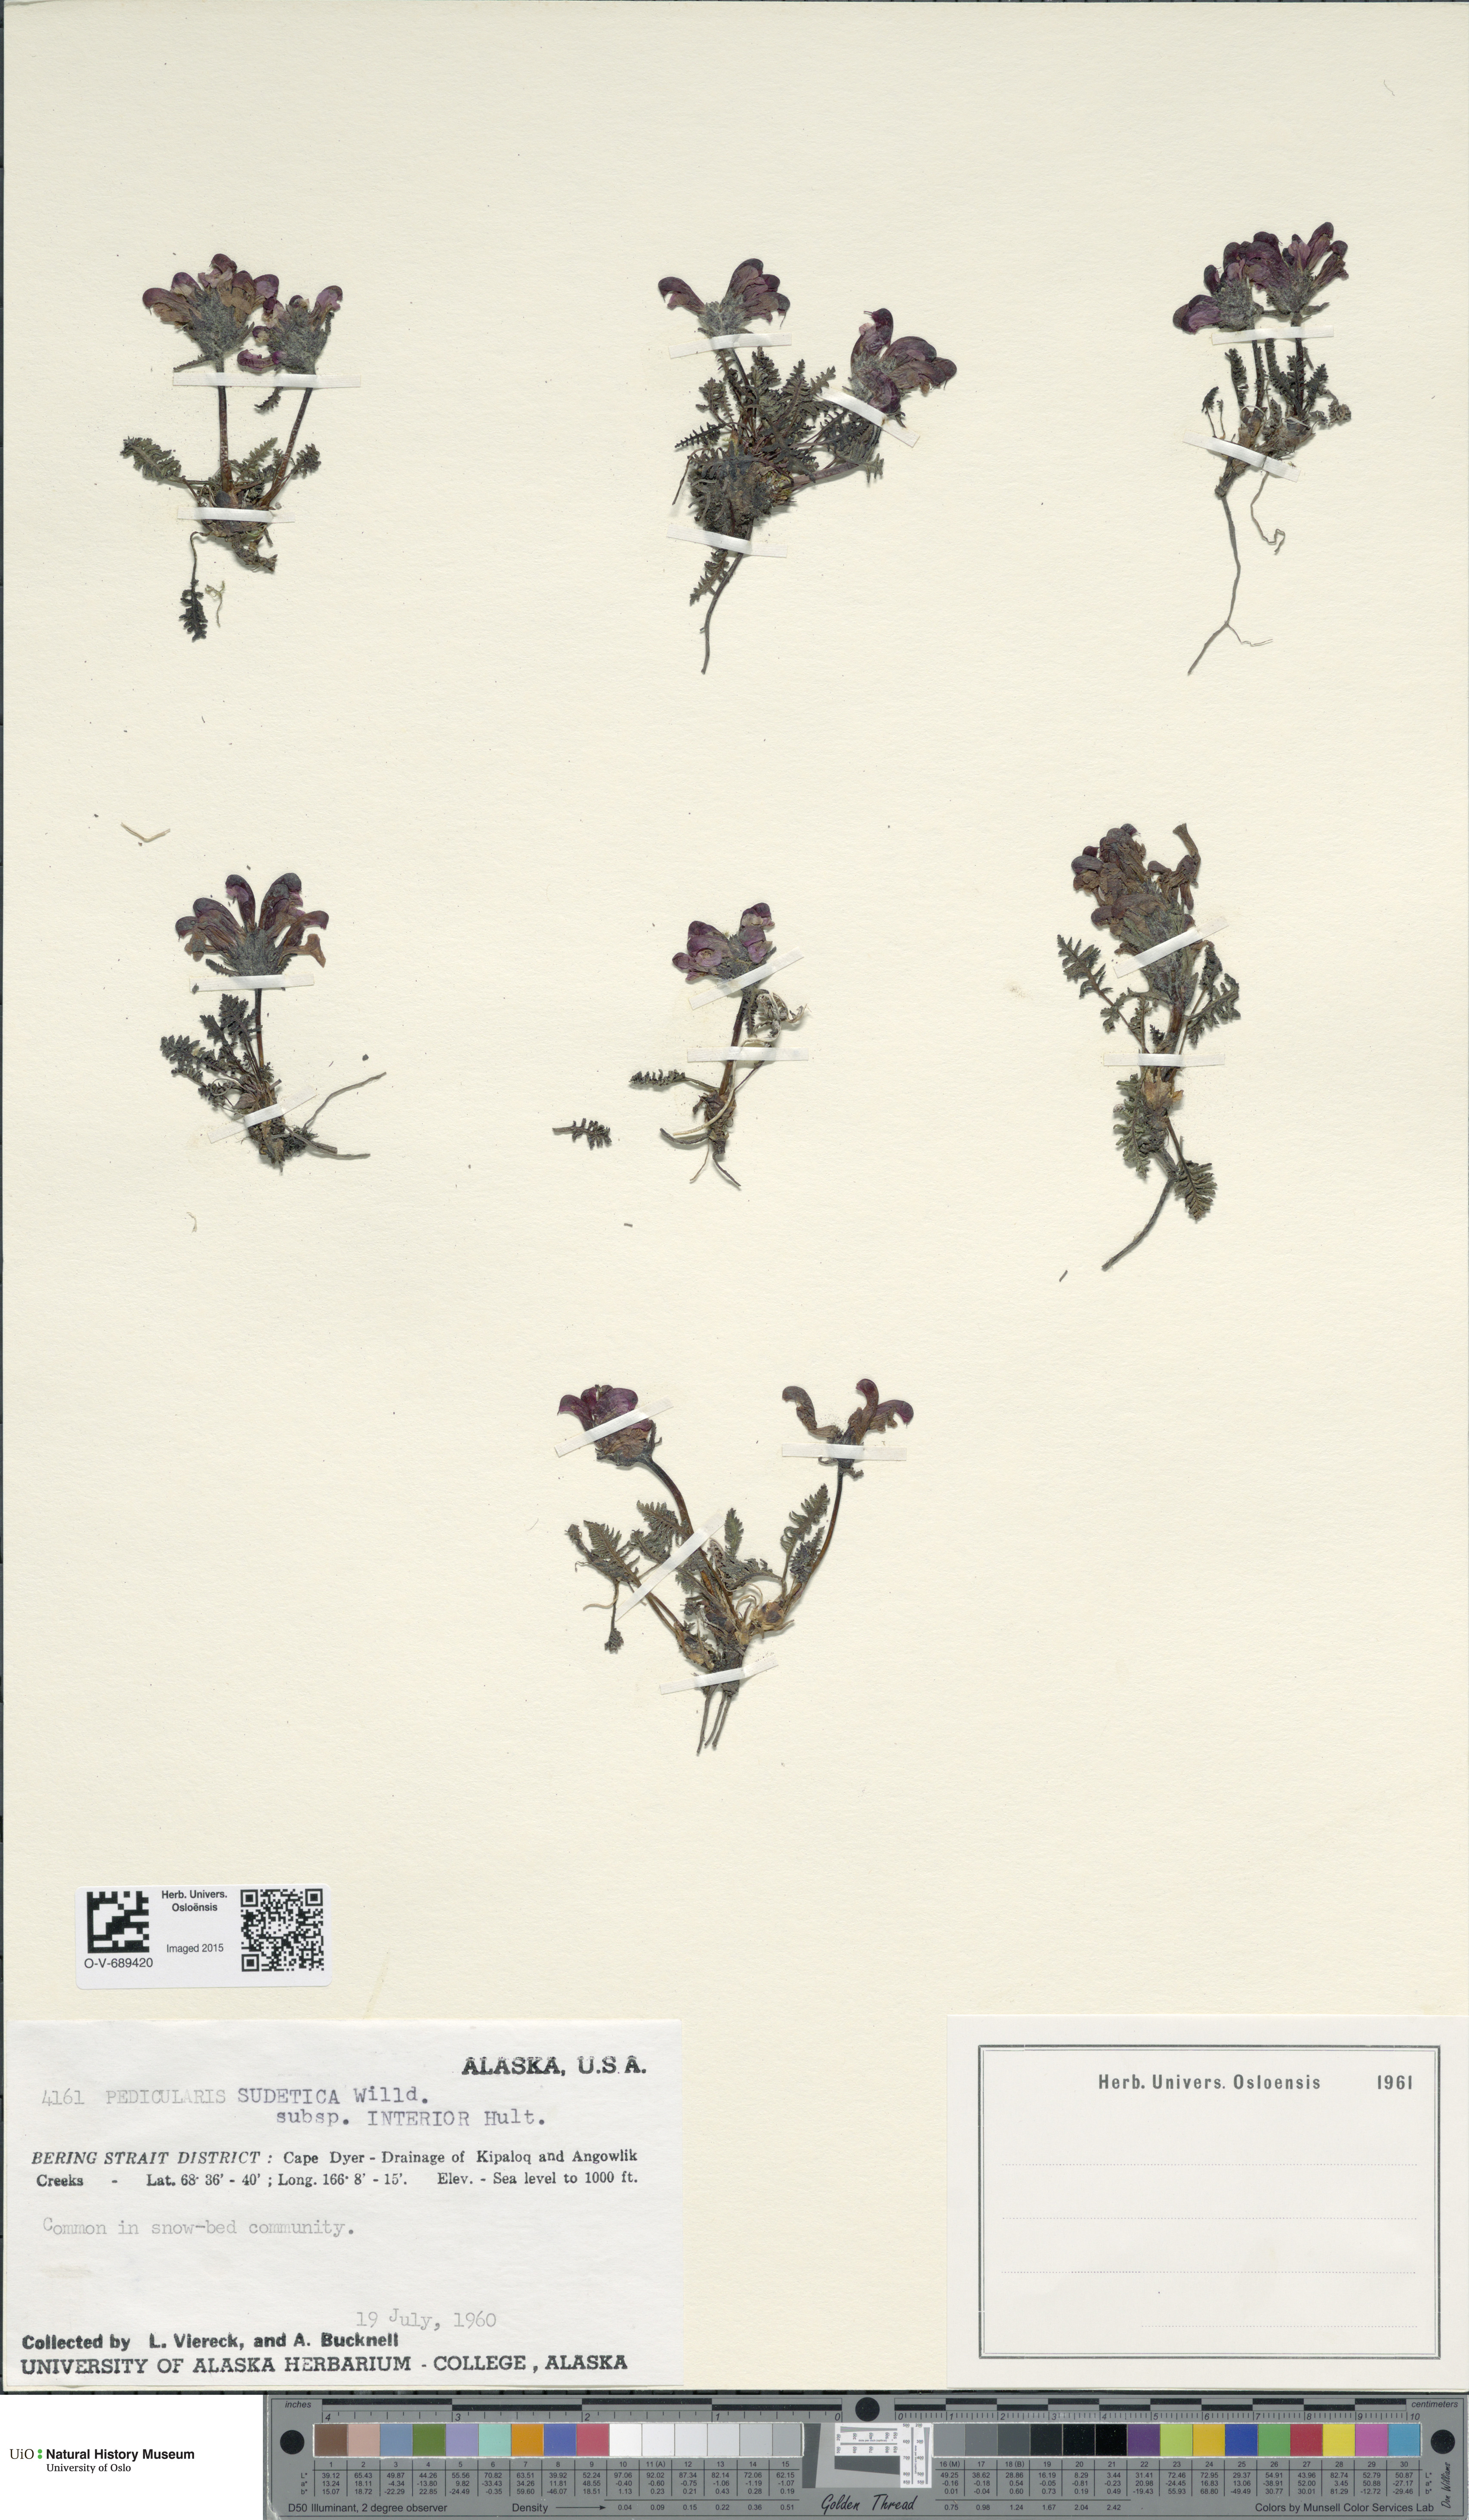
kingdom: Plantae
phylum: Tracheophyta
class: Magnoliopsida
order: Lamiales
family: Orobanchaceae
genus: Pedicularis
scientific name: Pedicularis interior
